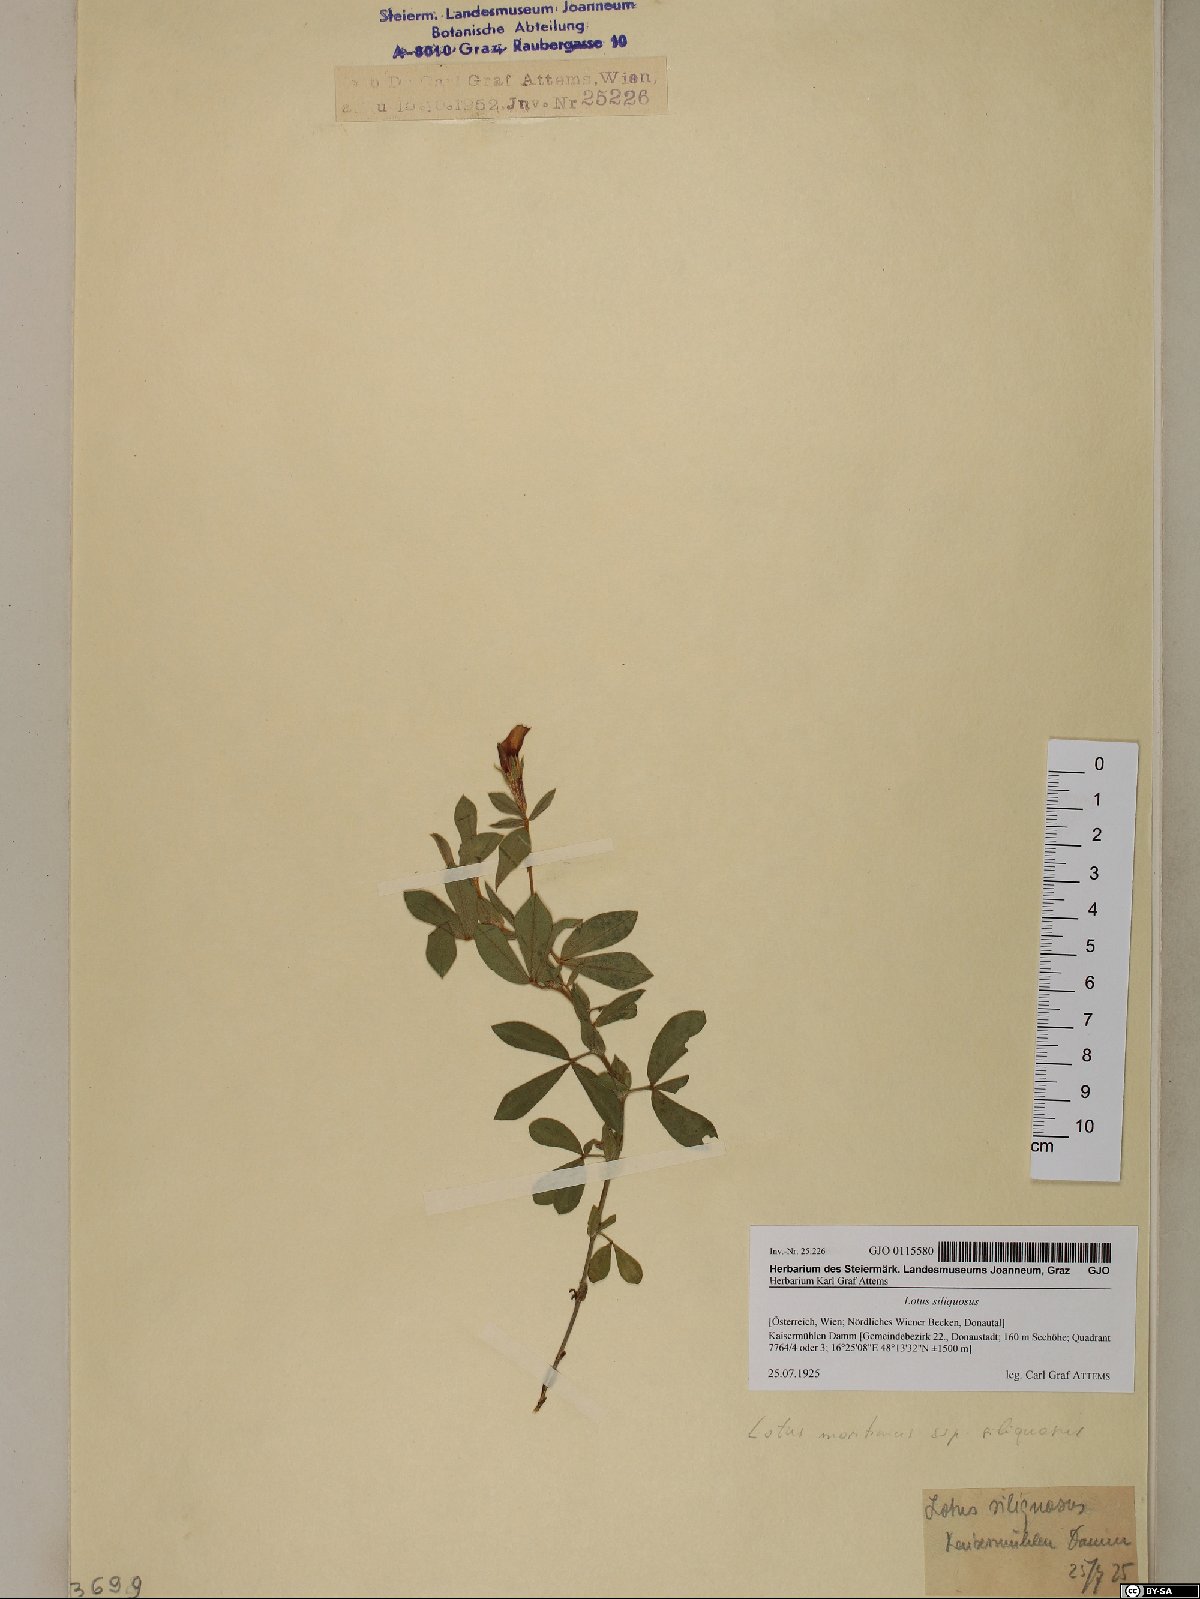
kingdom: Plantae
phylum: Tracheophyta
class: Magnoliopsida
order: Fabales
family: Fabaceae
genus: Lathyrus
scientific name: Lathyrus inconspicuus
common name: Inconspicuous pea
